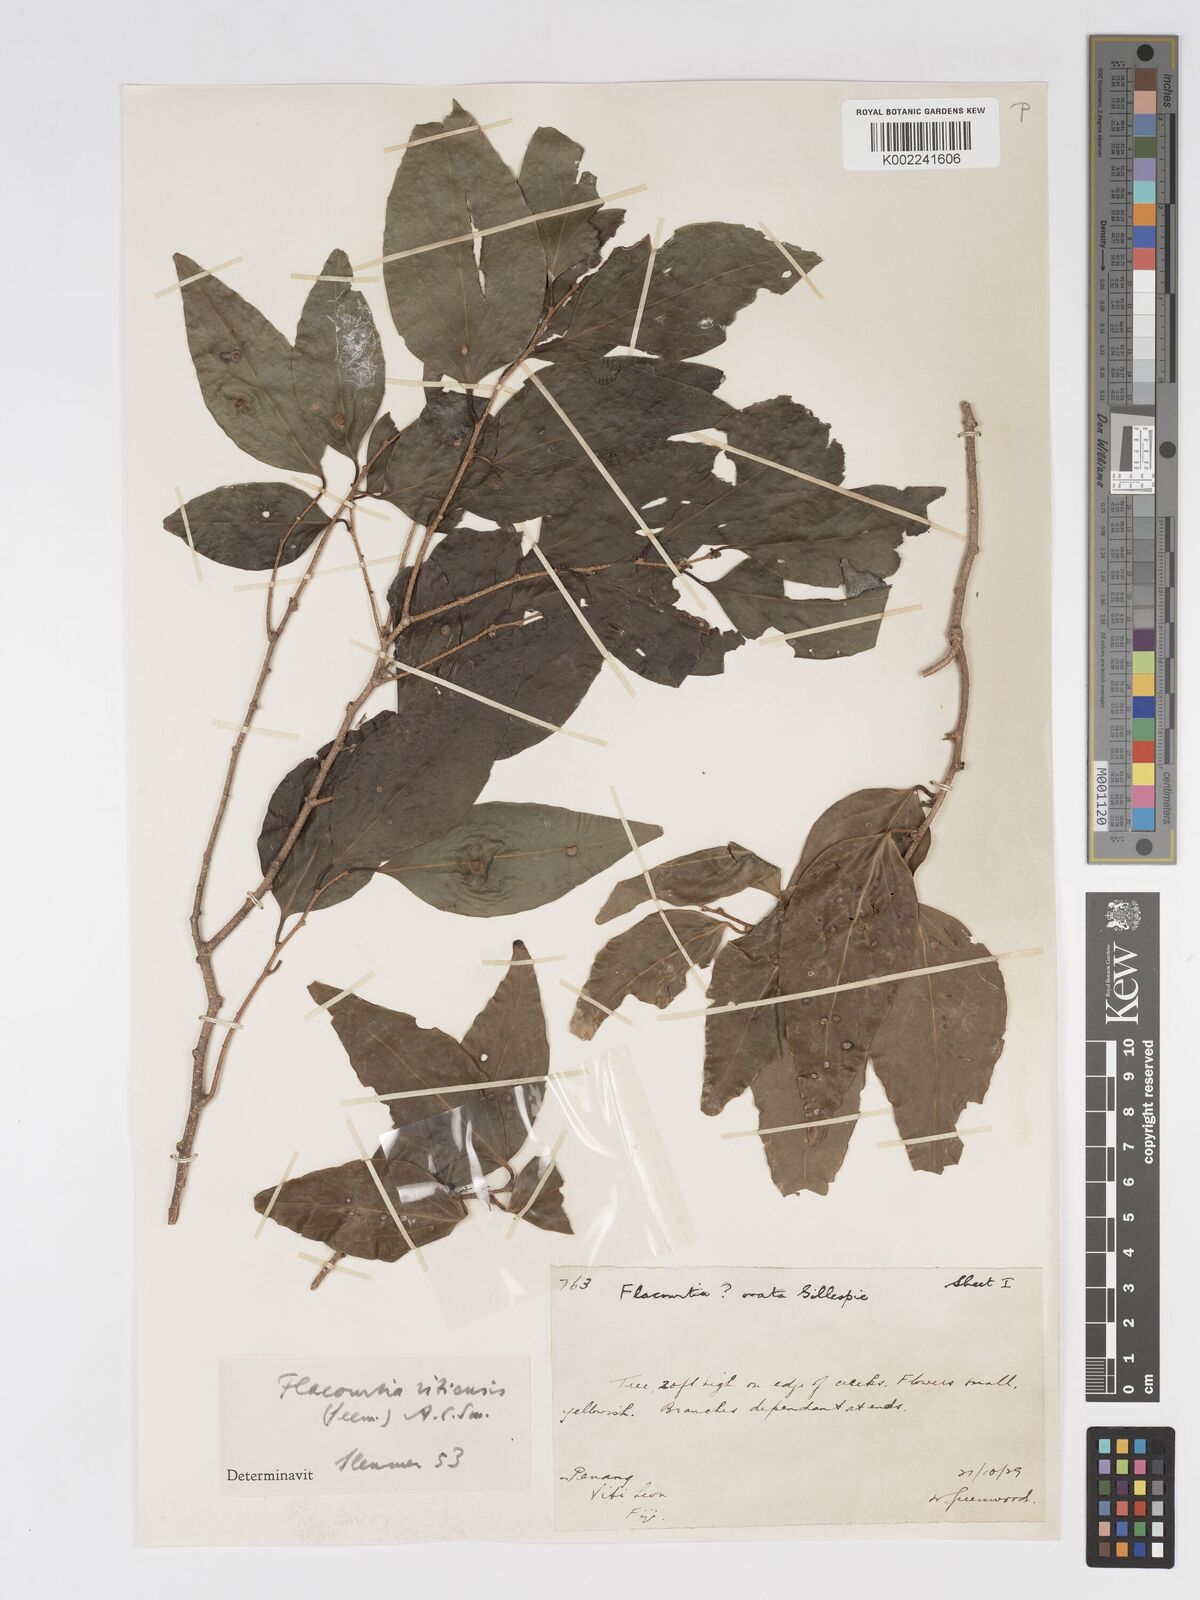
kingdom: Plantae
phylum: Tracheophyta
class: Magnoliopsida
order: Malpighiales
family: Salicaceae
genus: Flacourtia
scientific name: Flacourtia vitiensis
